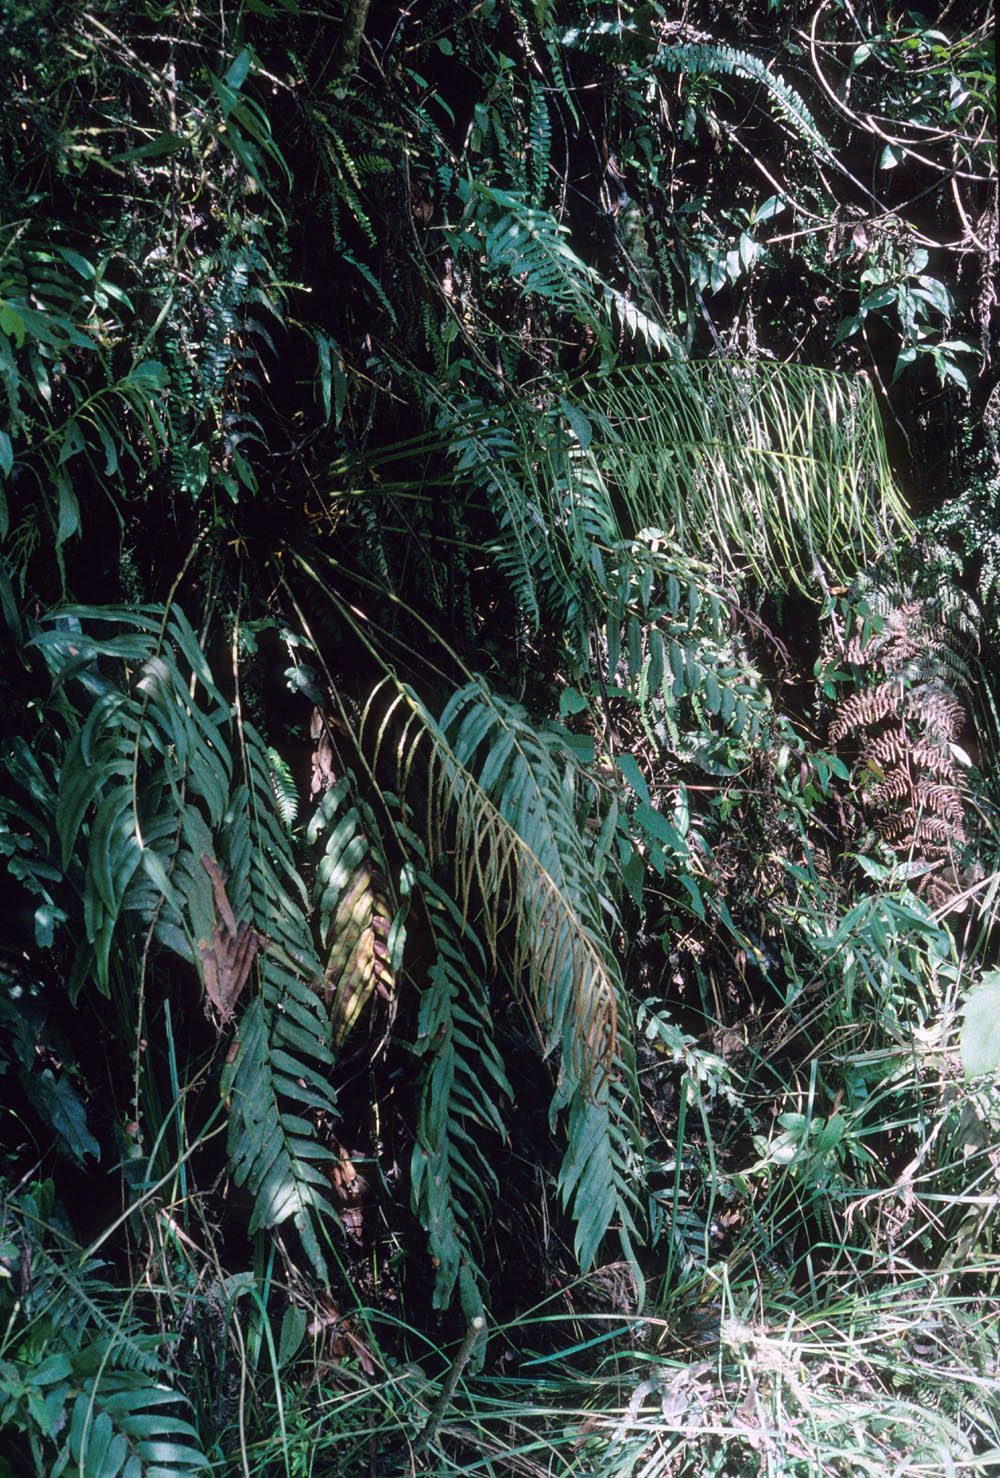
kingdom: Plantae
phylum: Tracheophyta
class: Polypodiopsida
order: Polypodiales
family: Blechnaceae
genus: Blechnum
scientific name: Blechnum
